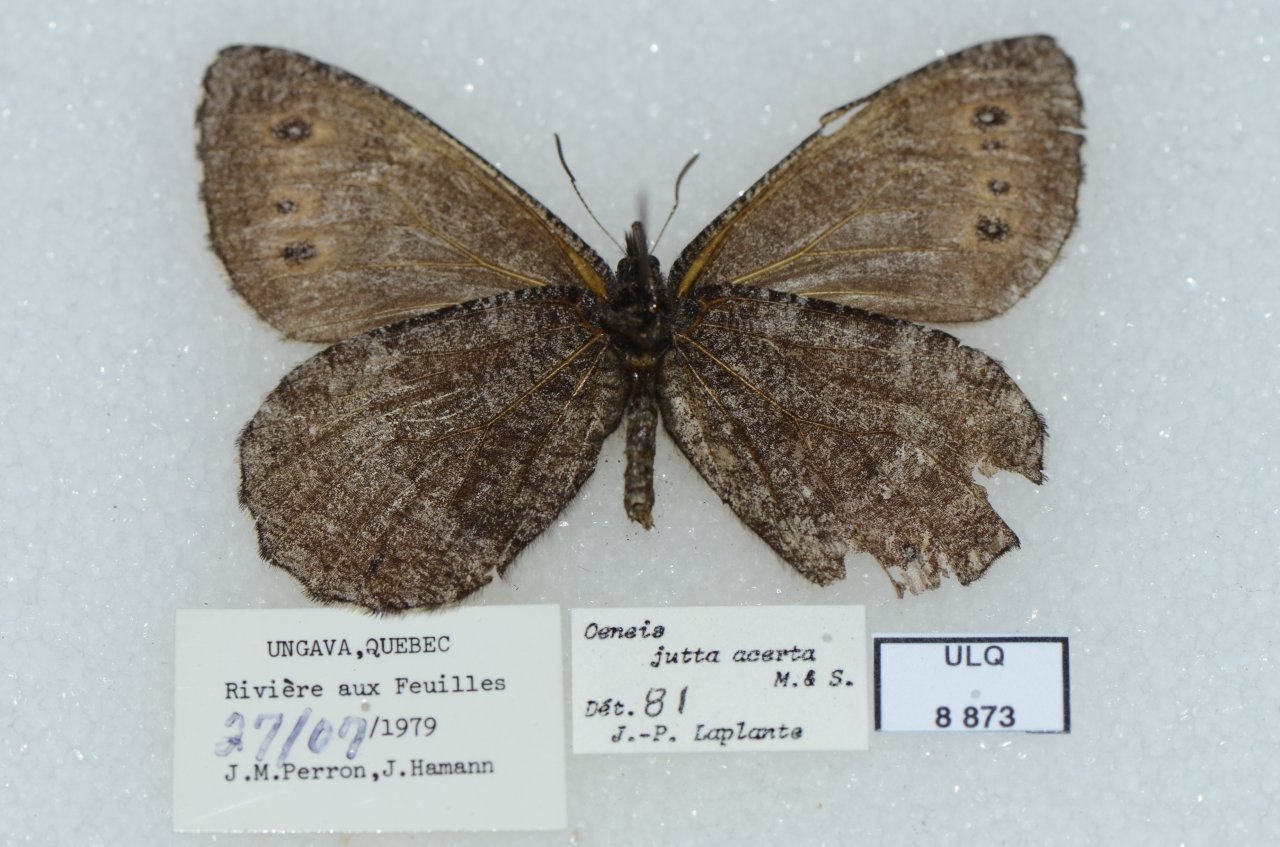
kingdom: Animalia
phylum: Arthropoda
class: Insecta
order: Lepidoptera
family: Nymphalidae
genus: Oeneis
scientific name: Oeneis jutta
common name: Jutta Arctic
